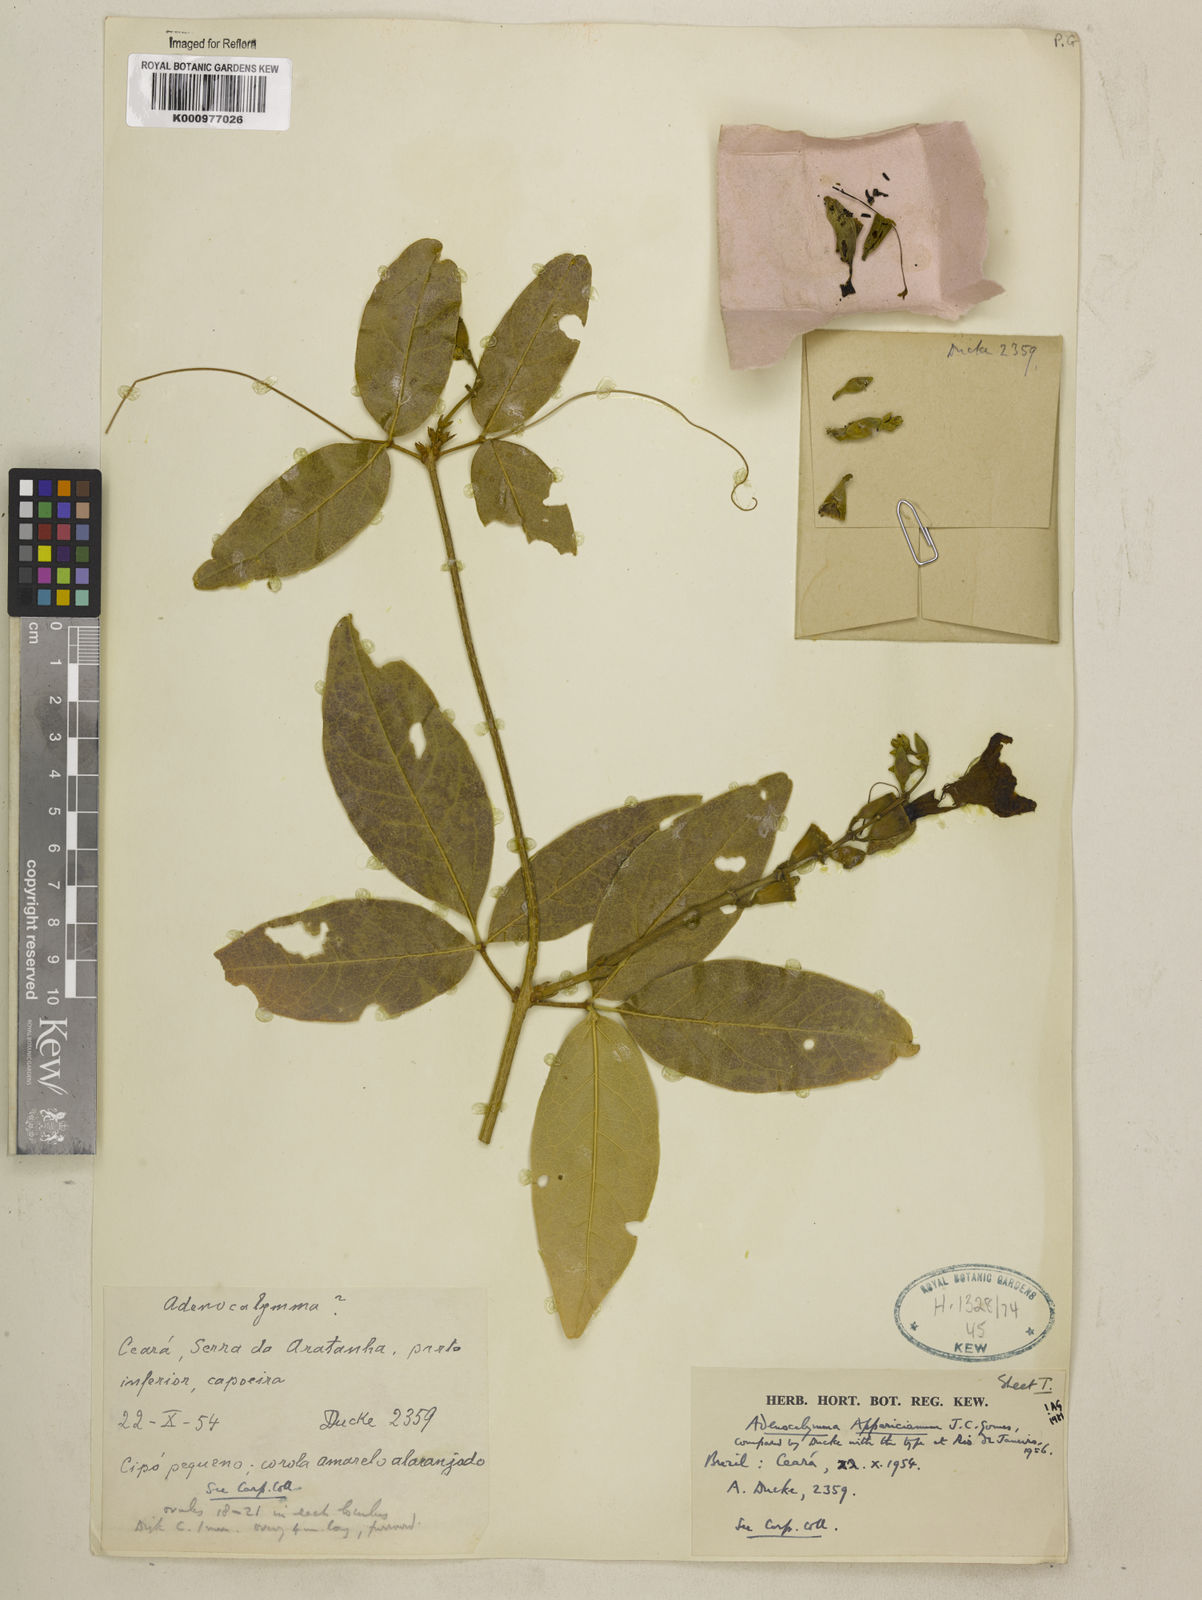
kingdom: Plantae
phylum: Tracheophyta
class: Magnoliopsida
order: Lamiales
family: Bignoniaceae
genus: Adenocalymma
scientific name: Adenocalymma apparicianum
